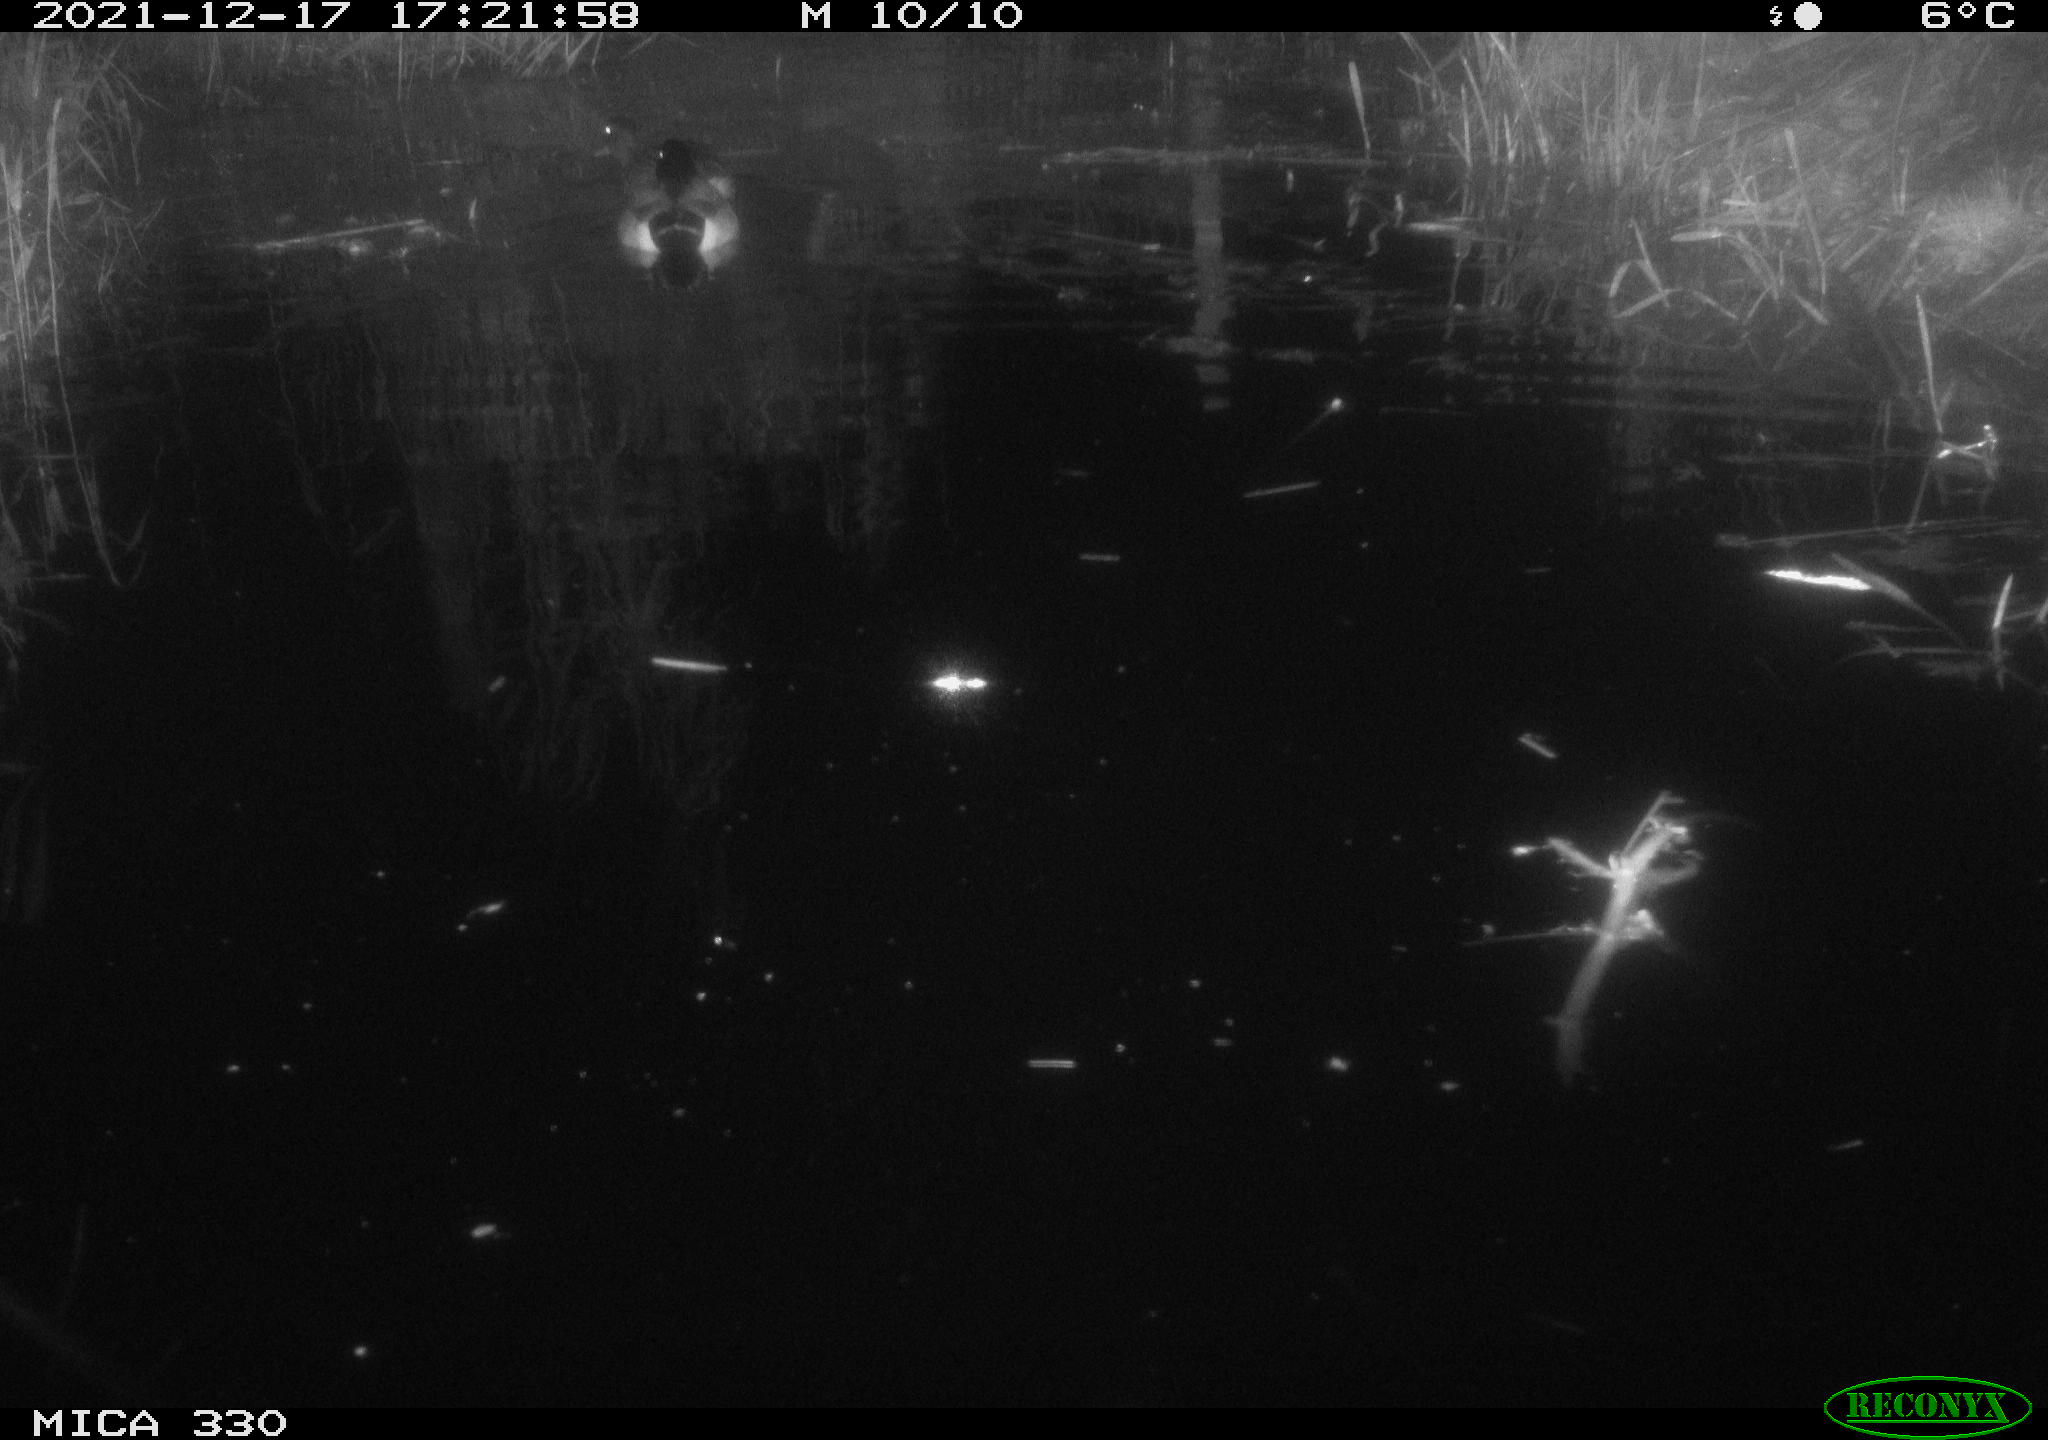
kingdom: Animalia
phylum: Chordata
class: Aves
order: Anseriformes
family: Anatidae
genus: Anas
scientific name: Anas platyrhynchos
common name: Mallard
